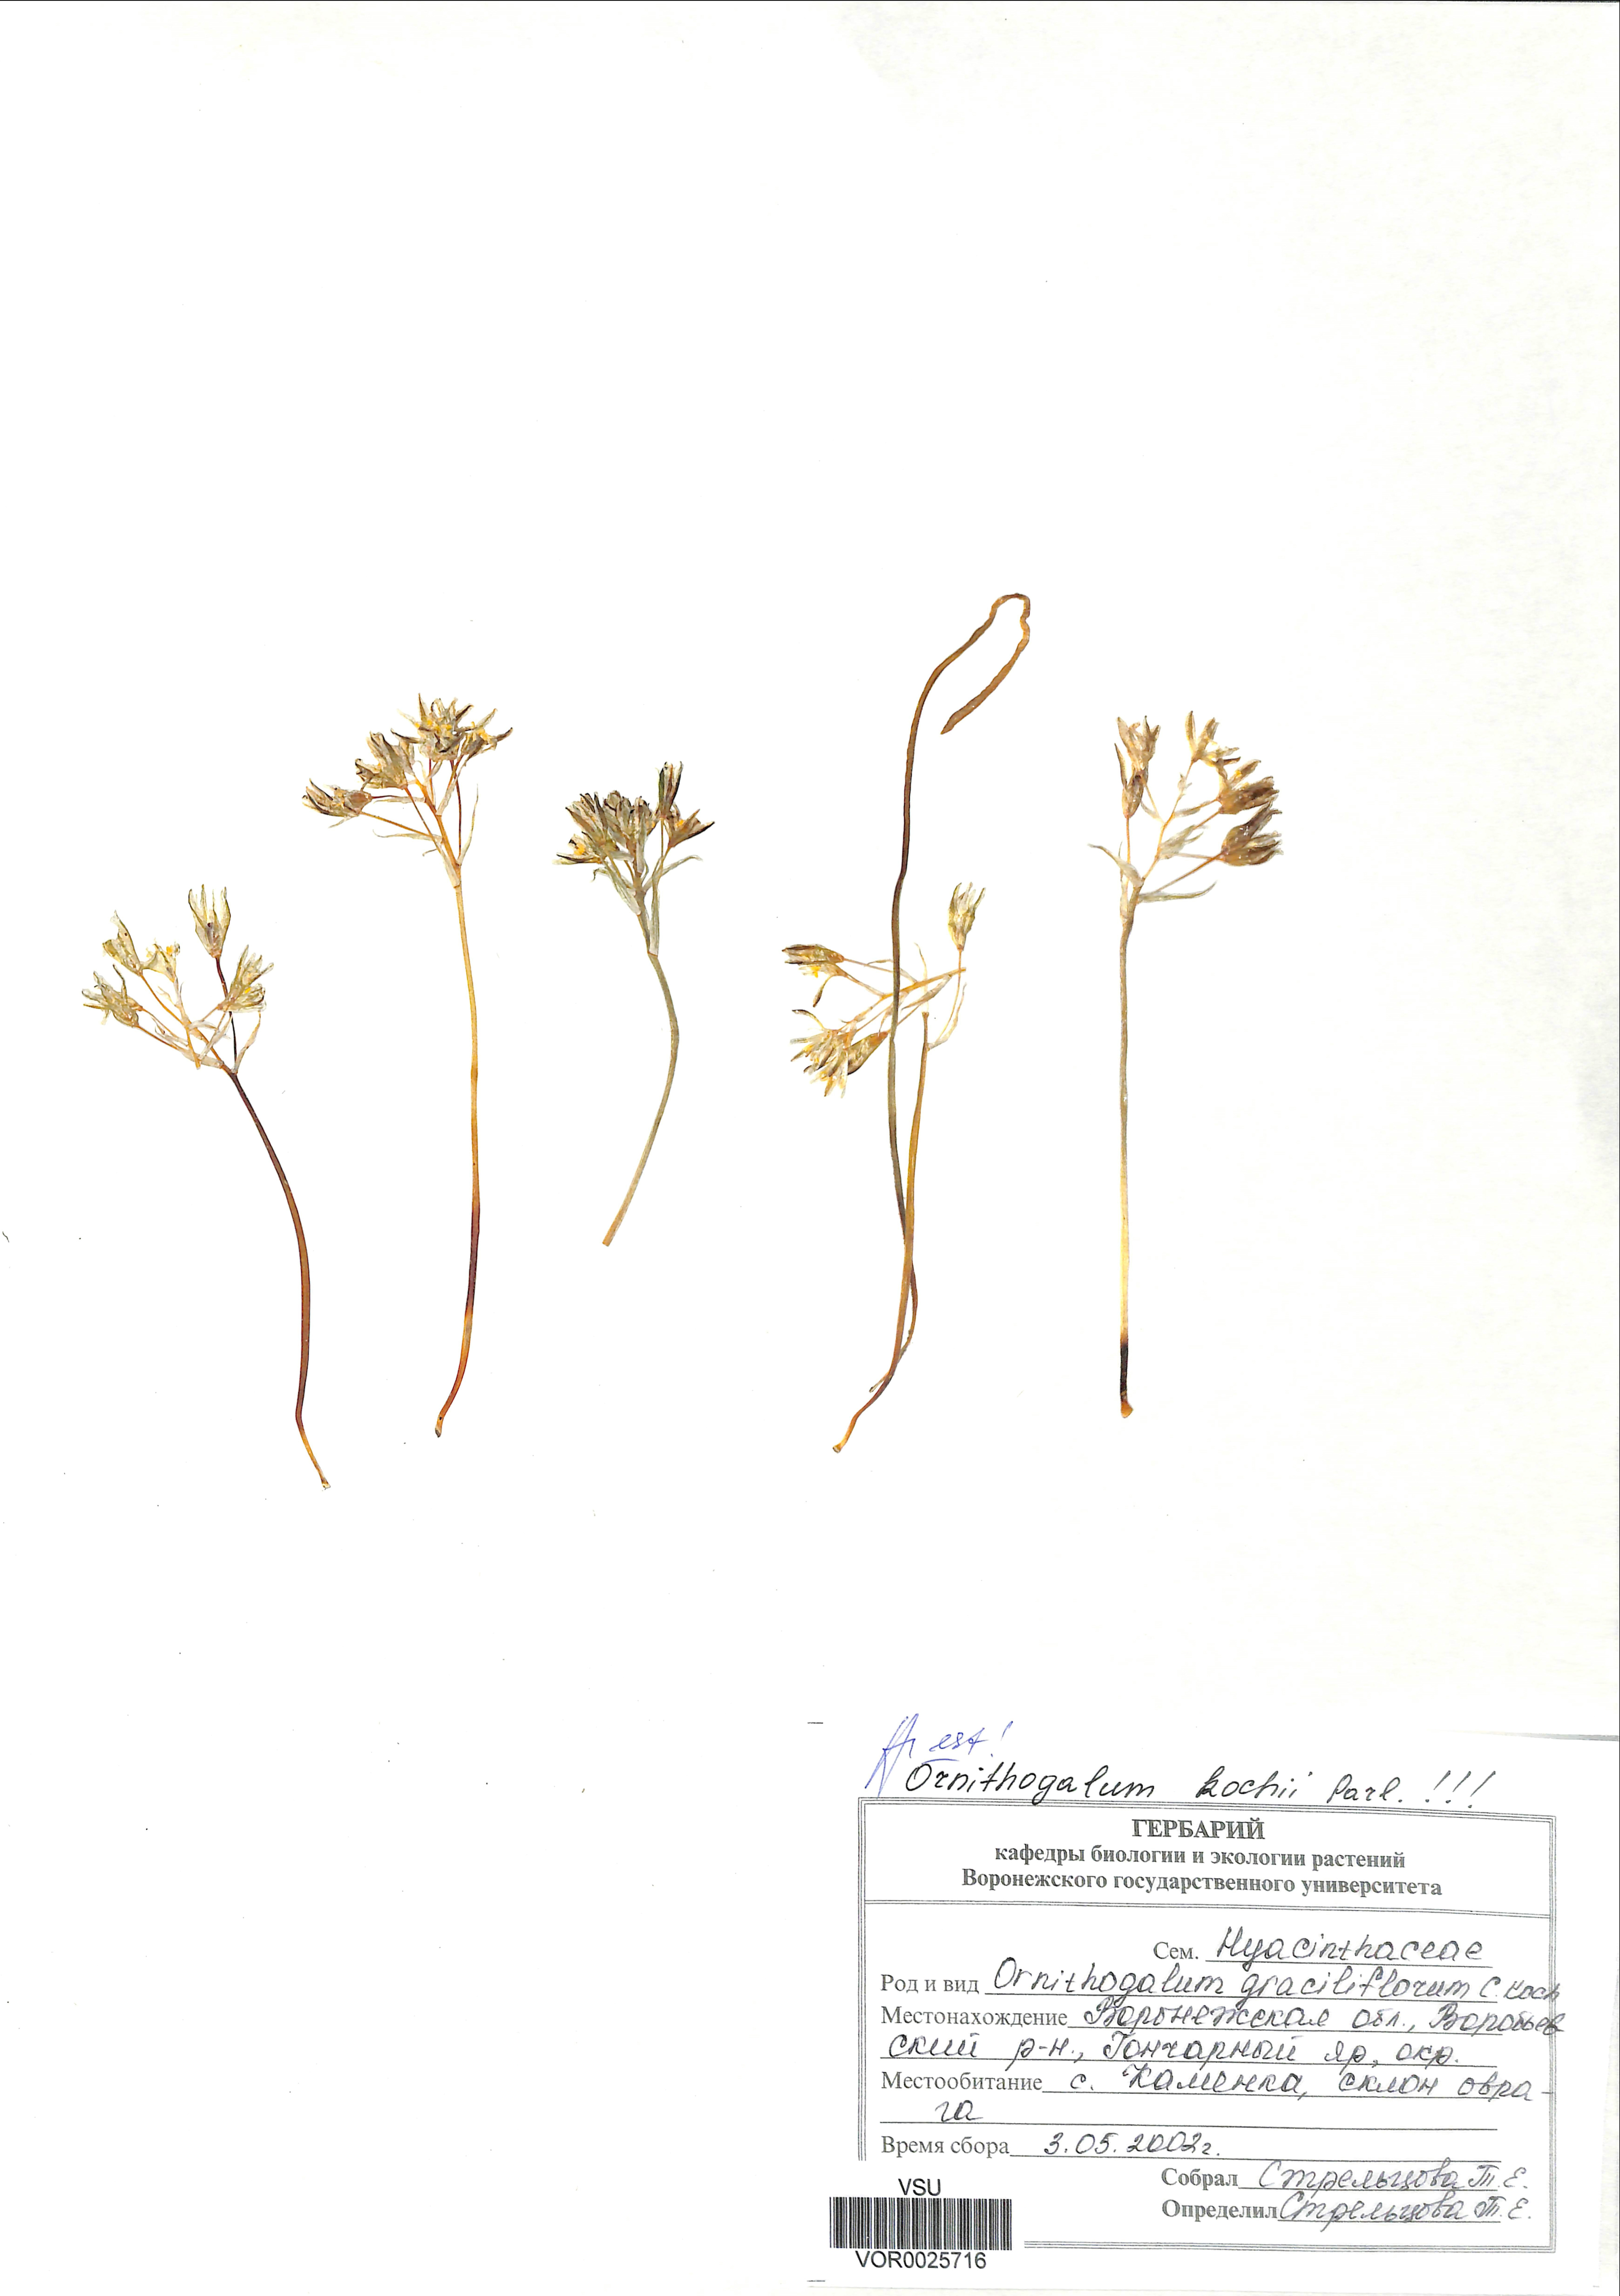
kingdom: Plantae
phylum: Tracheophyta
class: Liliopsida
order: Asparagales
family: Asparagaceae
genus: Ornithogalum
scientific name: Ornithogalum orthophyllum
